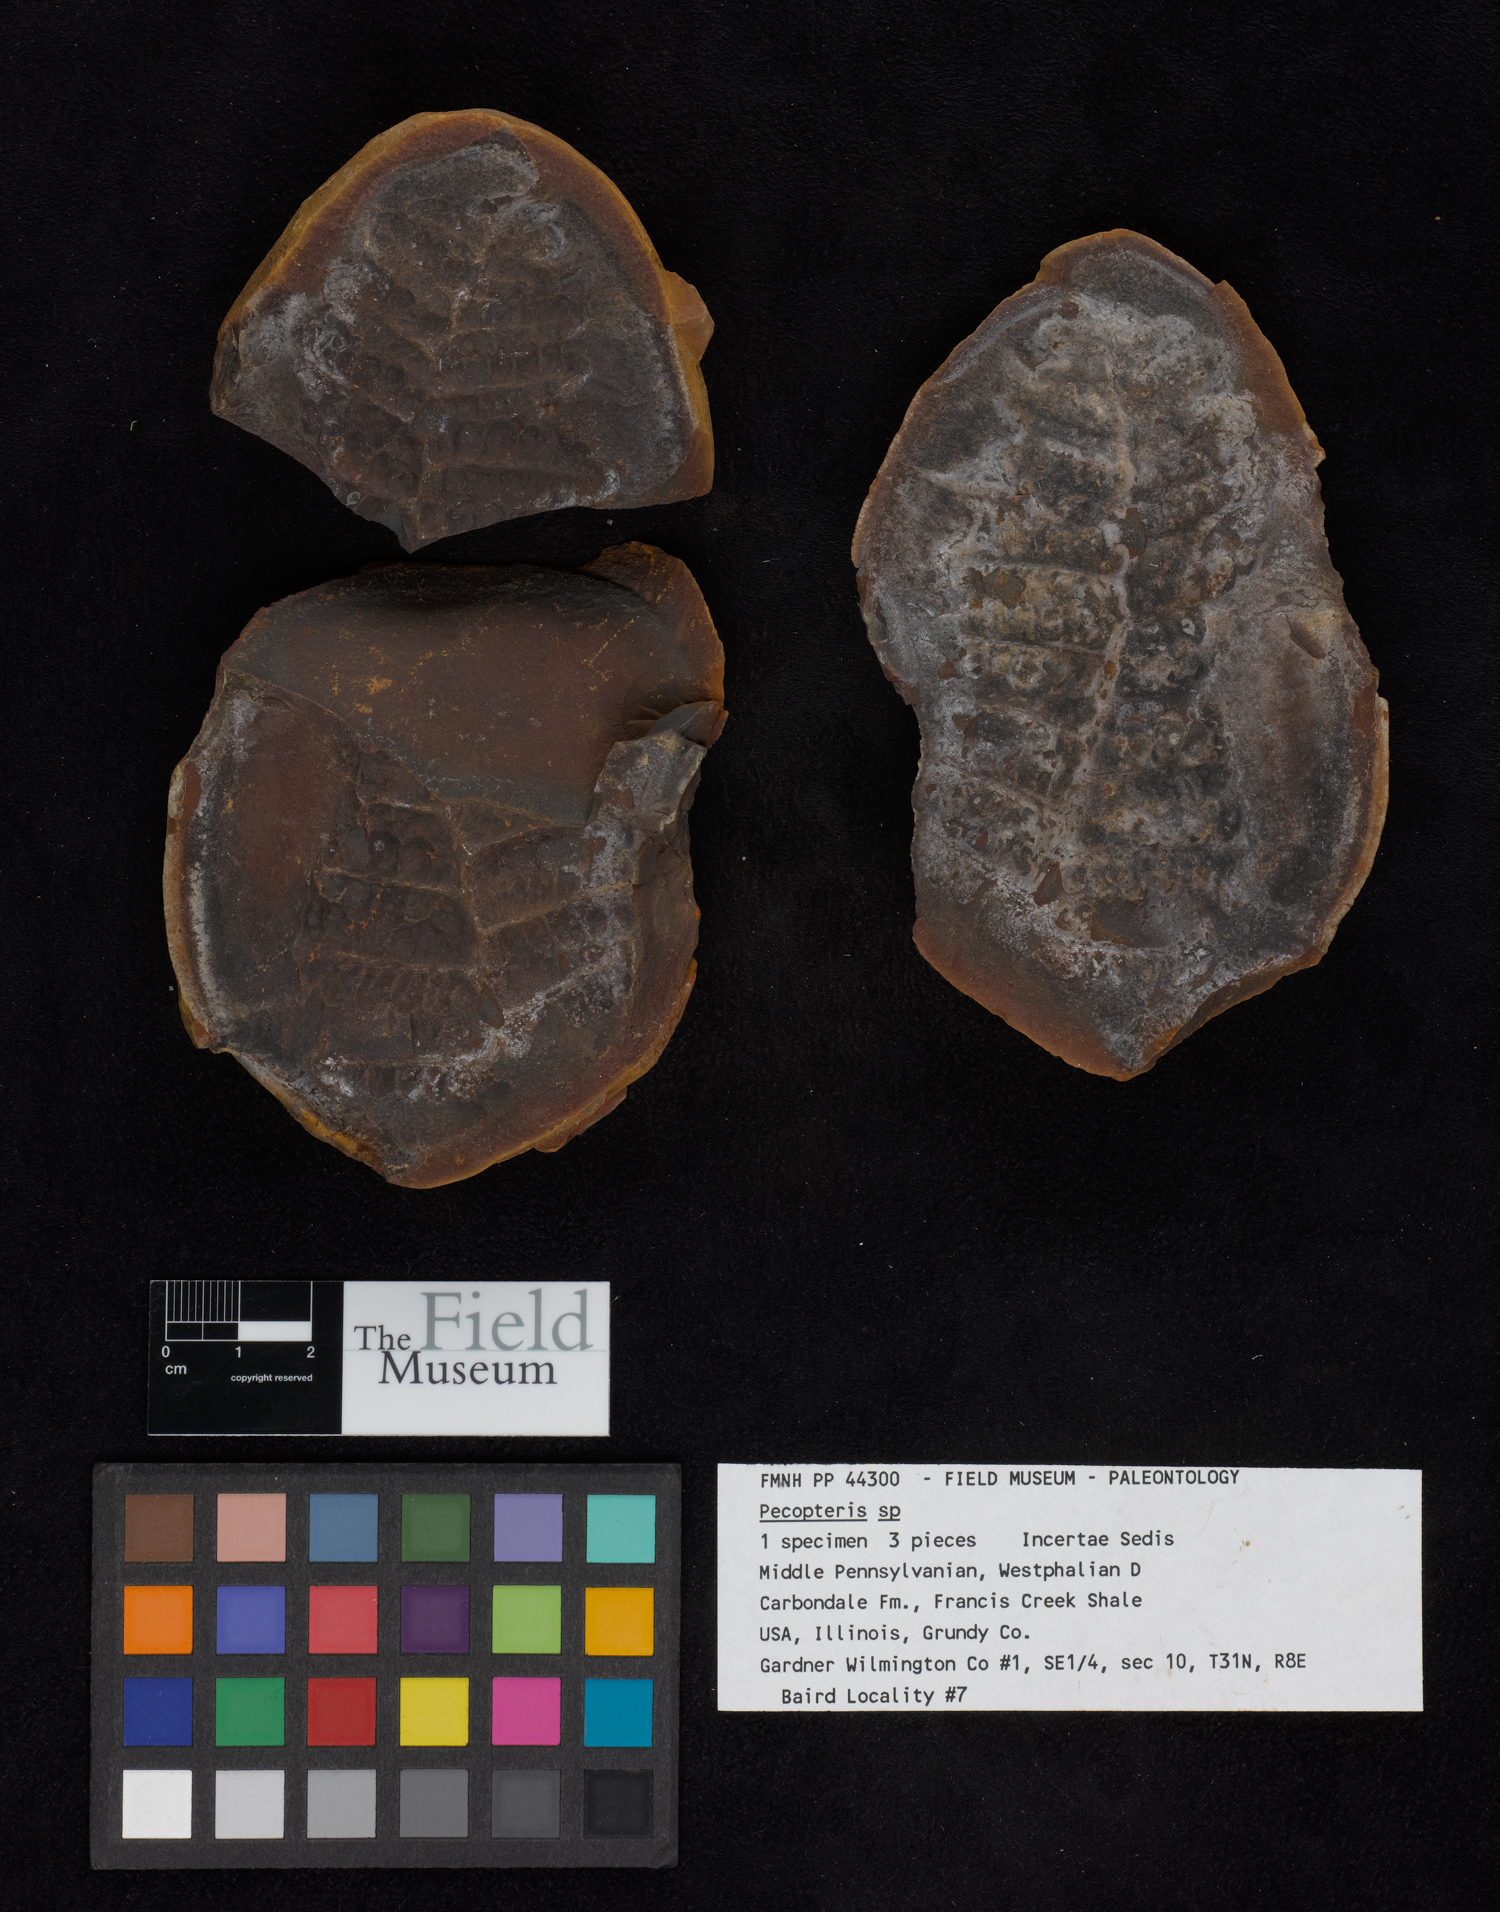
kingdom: Plantae
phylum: Tracheophyta
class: Polypodiopsida
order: Marattiales
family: Asterothecaceae
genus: Pecopteris
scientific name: Pecopteris
